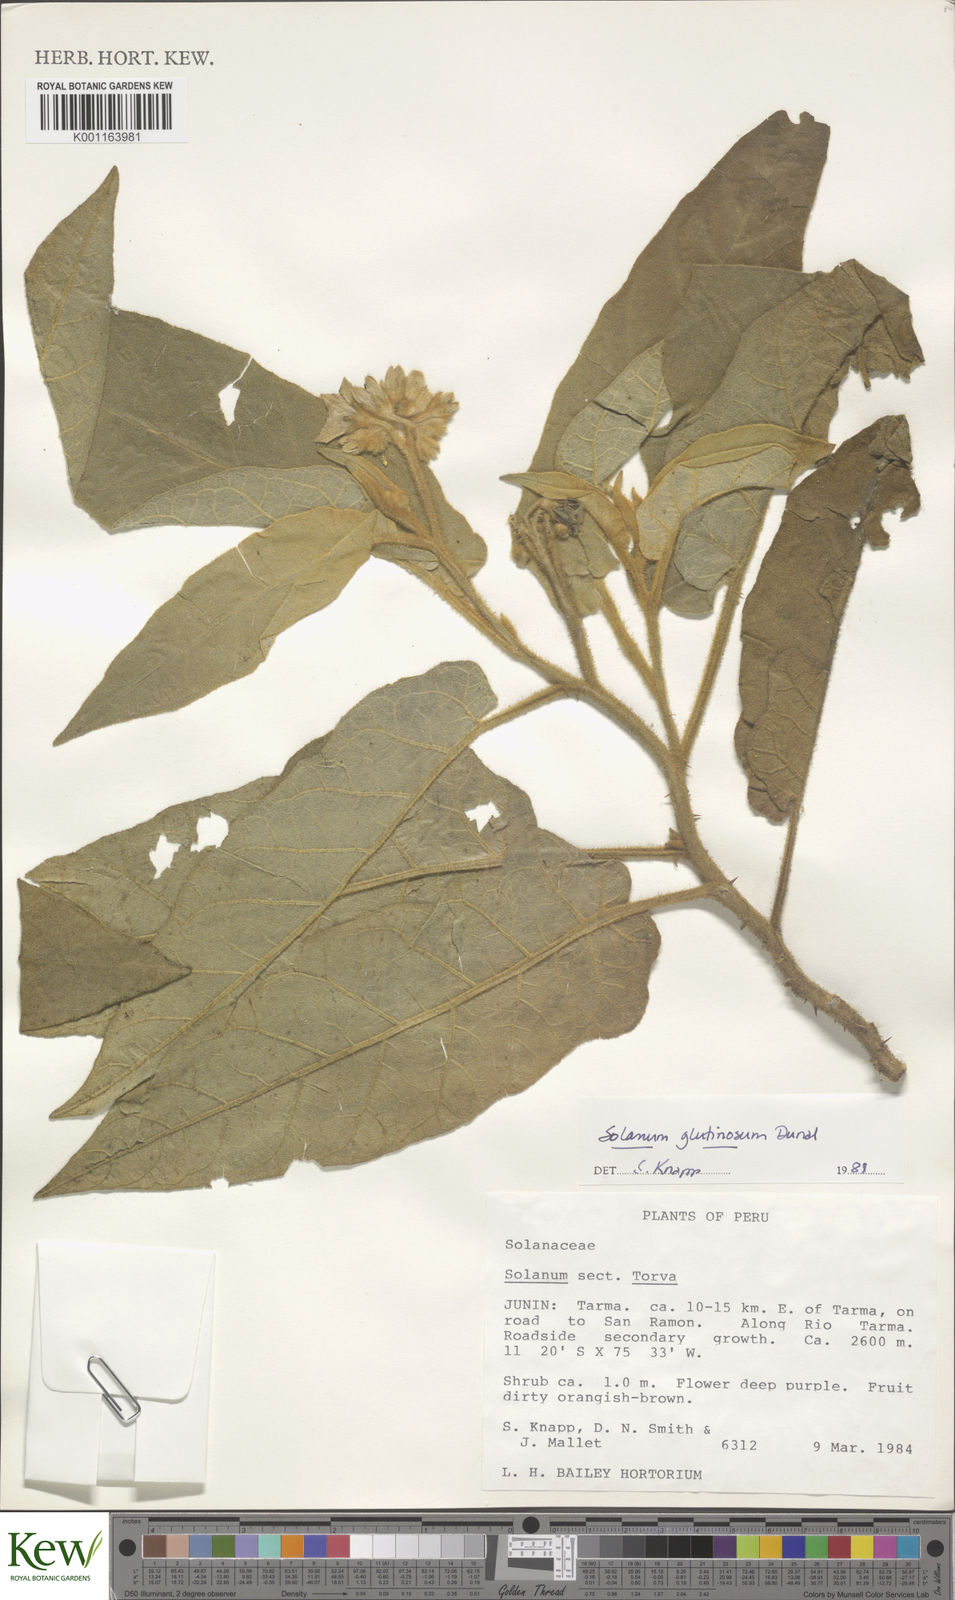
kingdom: Plantae
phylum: Tracheophyta
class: Magnoliopsida
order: Solanales
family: Solanaceae
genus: Solanum
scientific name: Solanum glutinosum
